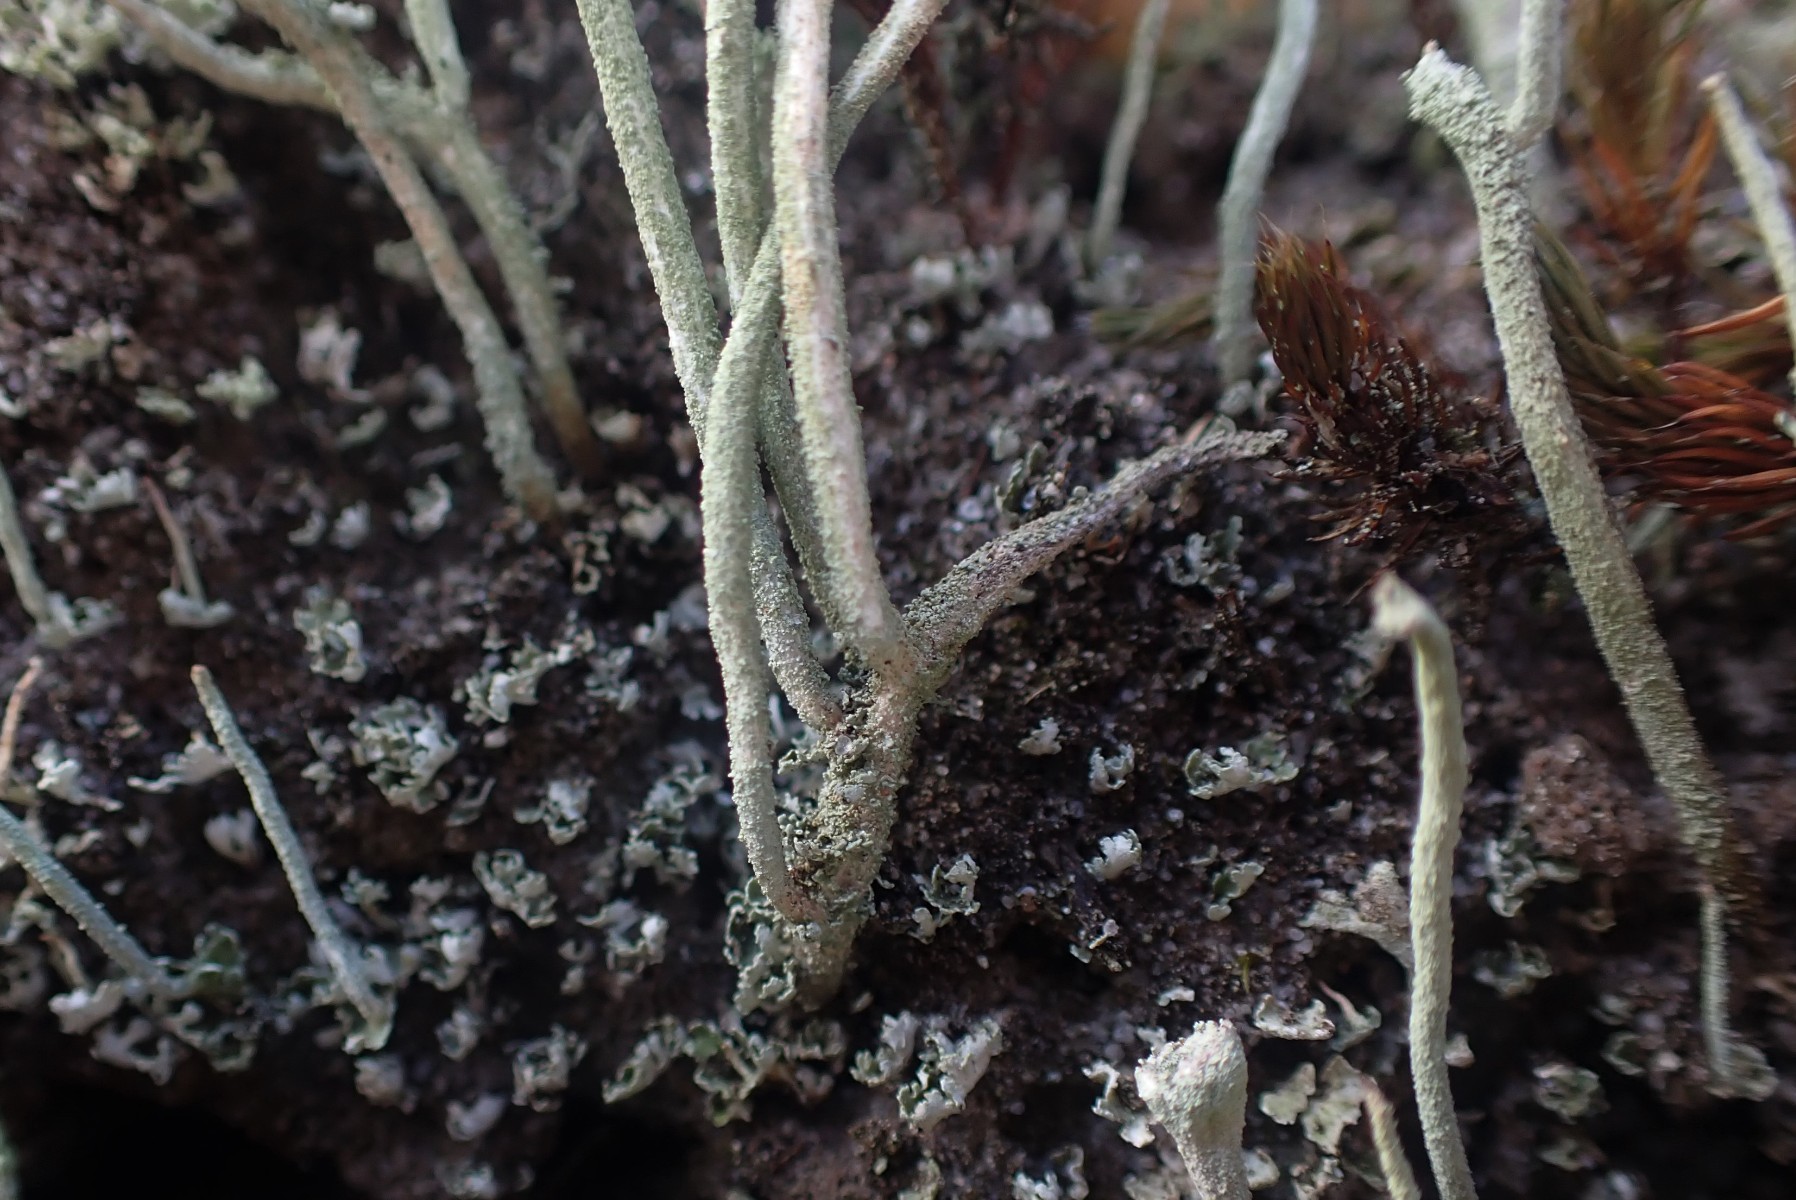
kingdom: Fungi
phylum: Ascomycota
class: Lecanoromycetes
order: Lecanorales
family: Cladoniaceae
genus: Cladonia
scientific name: Cladonia subulata
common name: spids bægerlav
